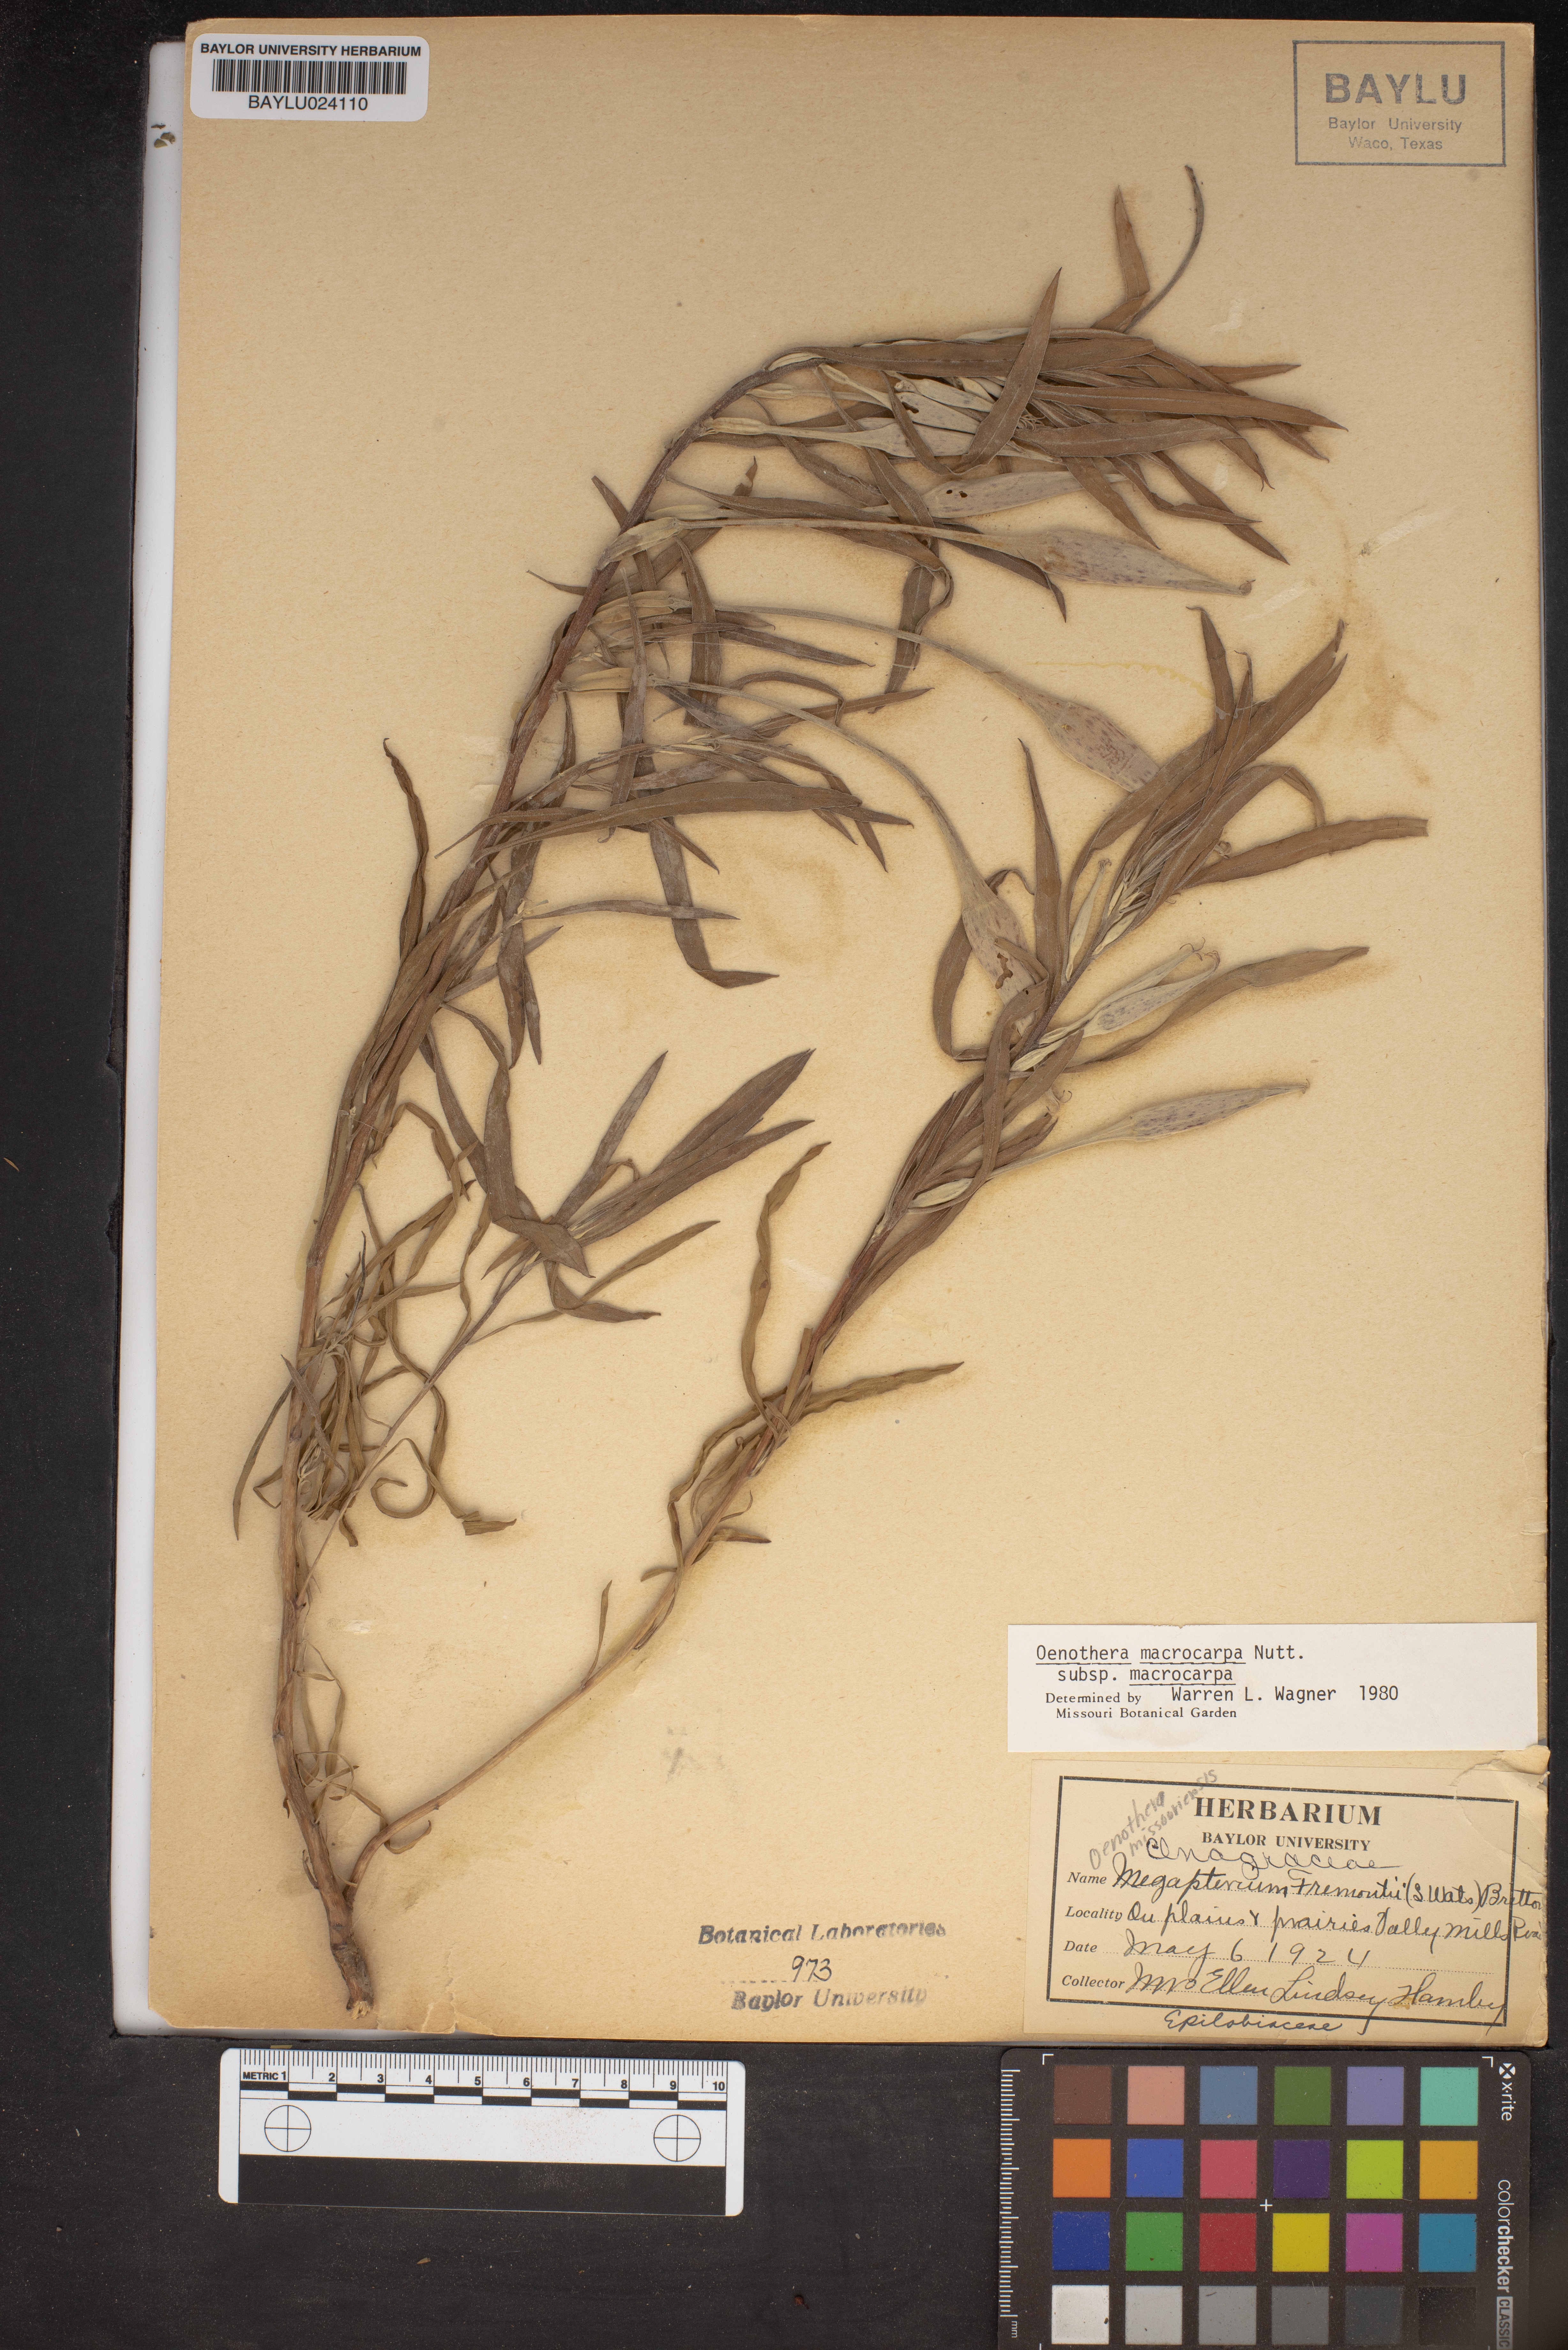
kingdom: Plantae
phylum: Tracheophyta
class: Magnoliopsida
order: Myrtales
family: Onagraceae
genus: Oenothera
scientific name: Oenothera macrocarpa
